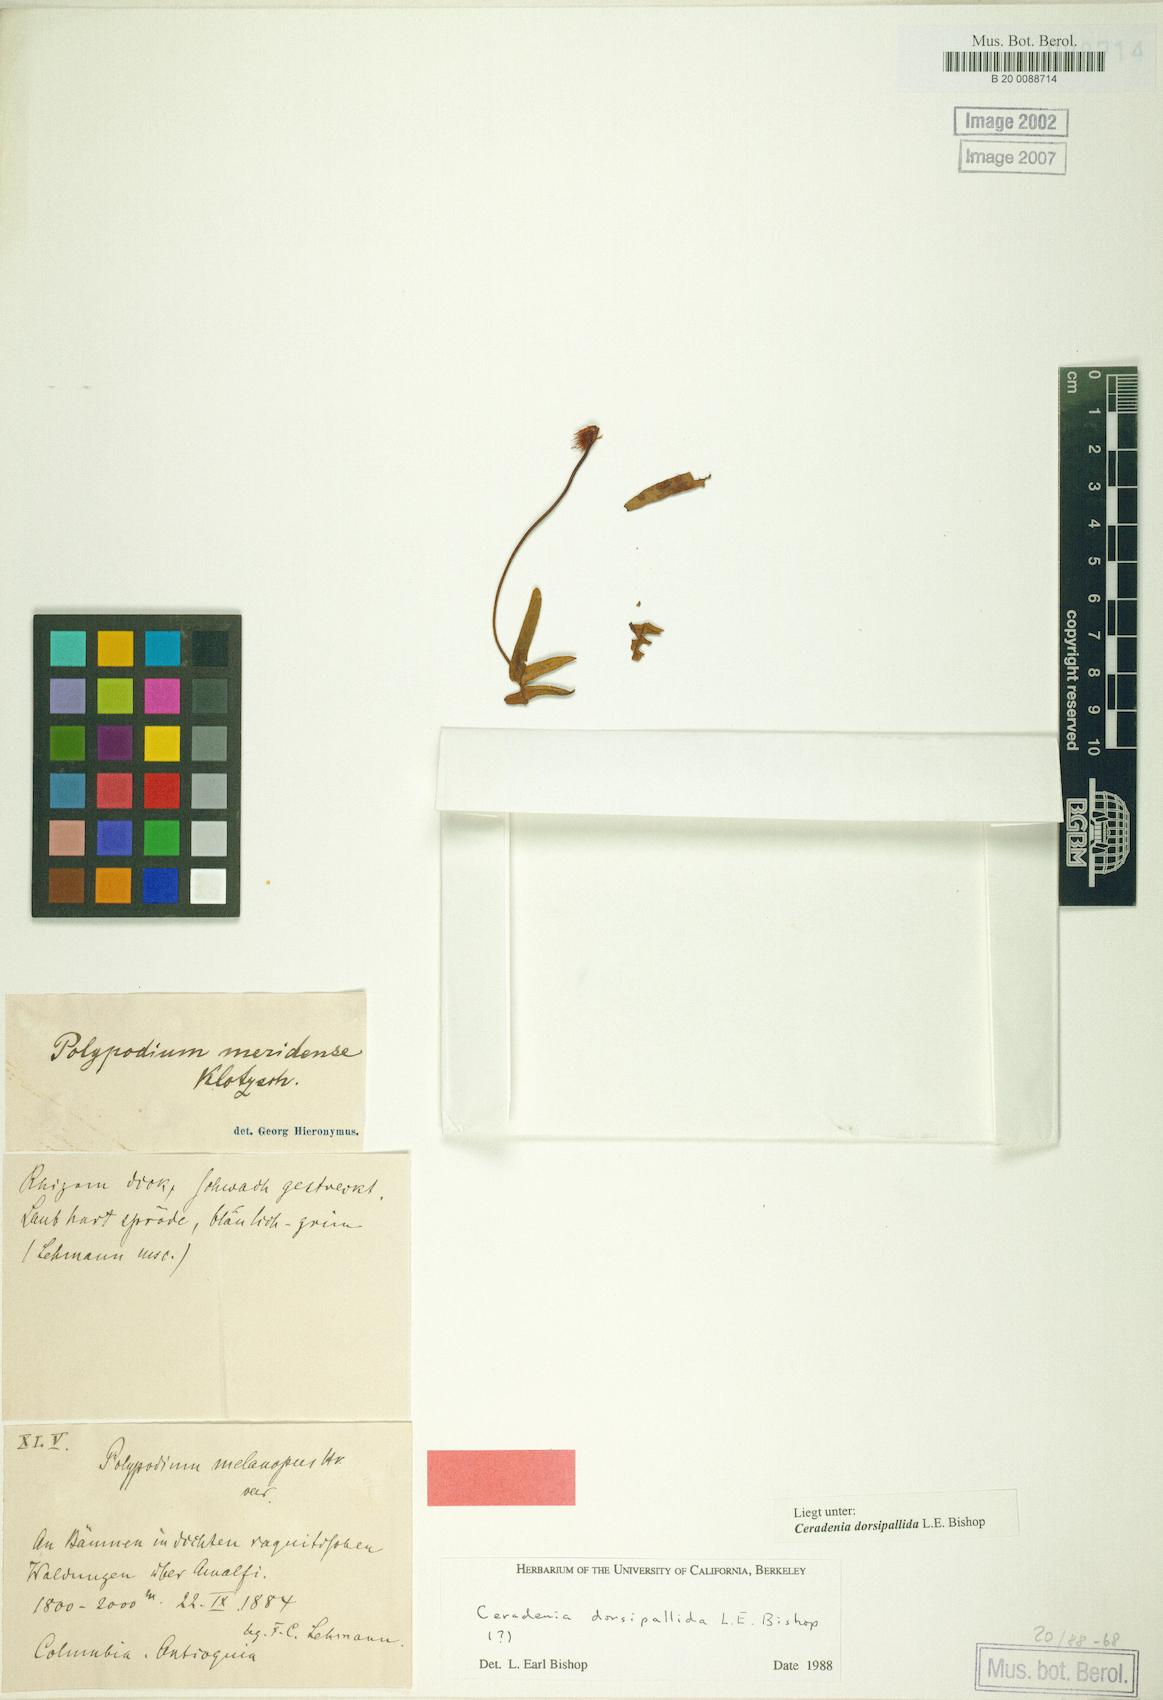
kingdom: Plantae
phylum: Tracheophyta
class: Polypodiopsida
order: Polypodiales
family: Polypodiaceae
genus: Ceradenia
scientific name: Ceradenia
